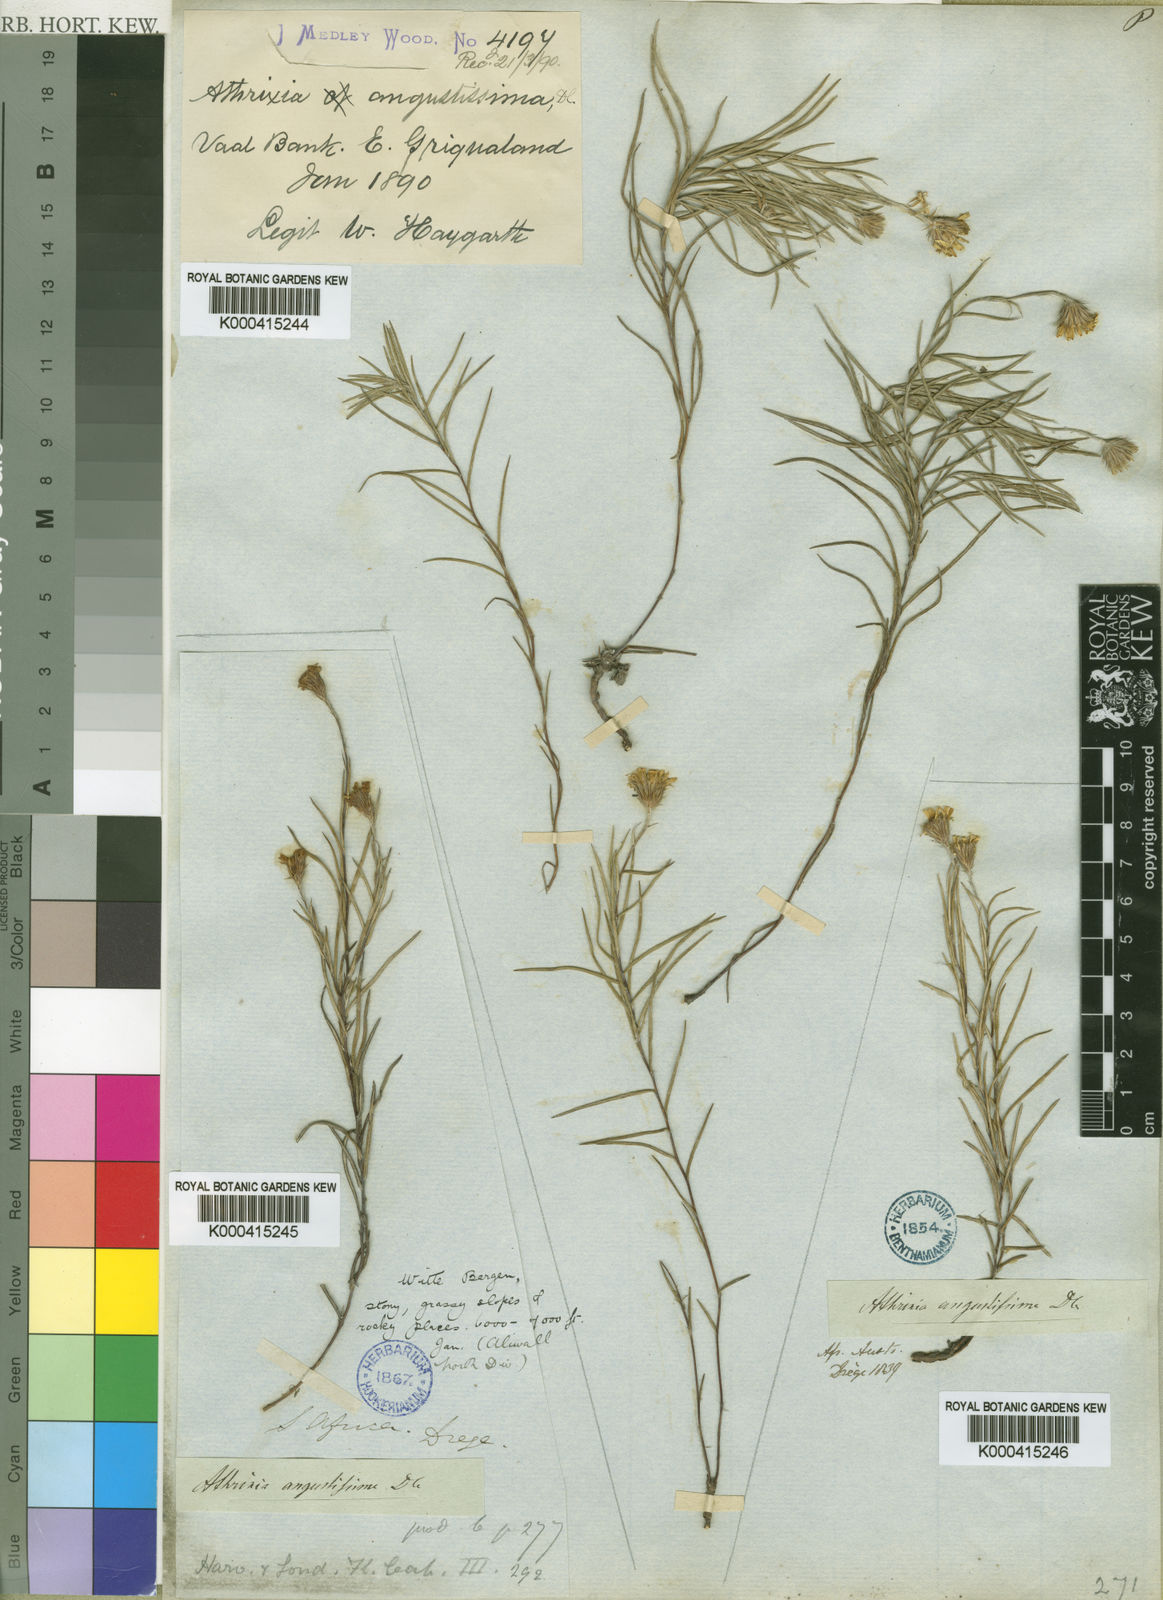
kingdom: Plantae
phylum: Tracheophyta
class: Magnoliopsida
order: Asterales
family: Asteraceae
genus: Athrixia
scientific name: Athrixia angustissima
